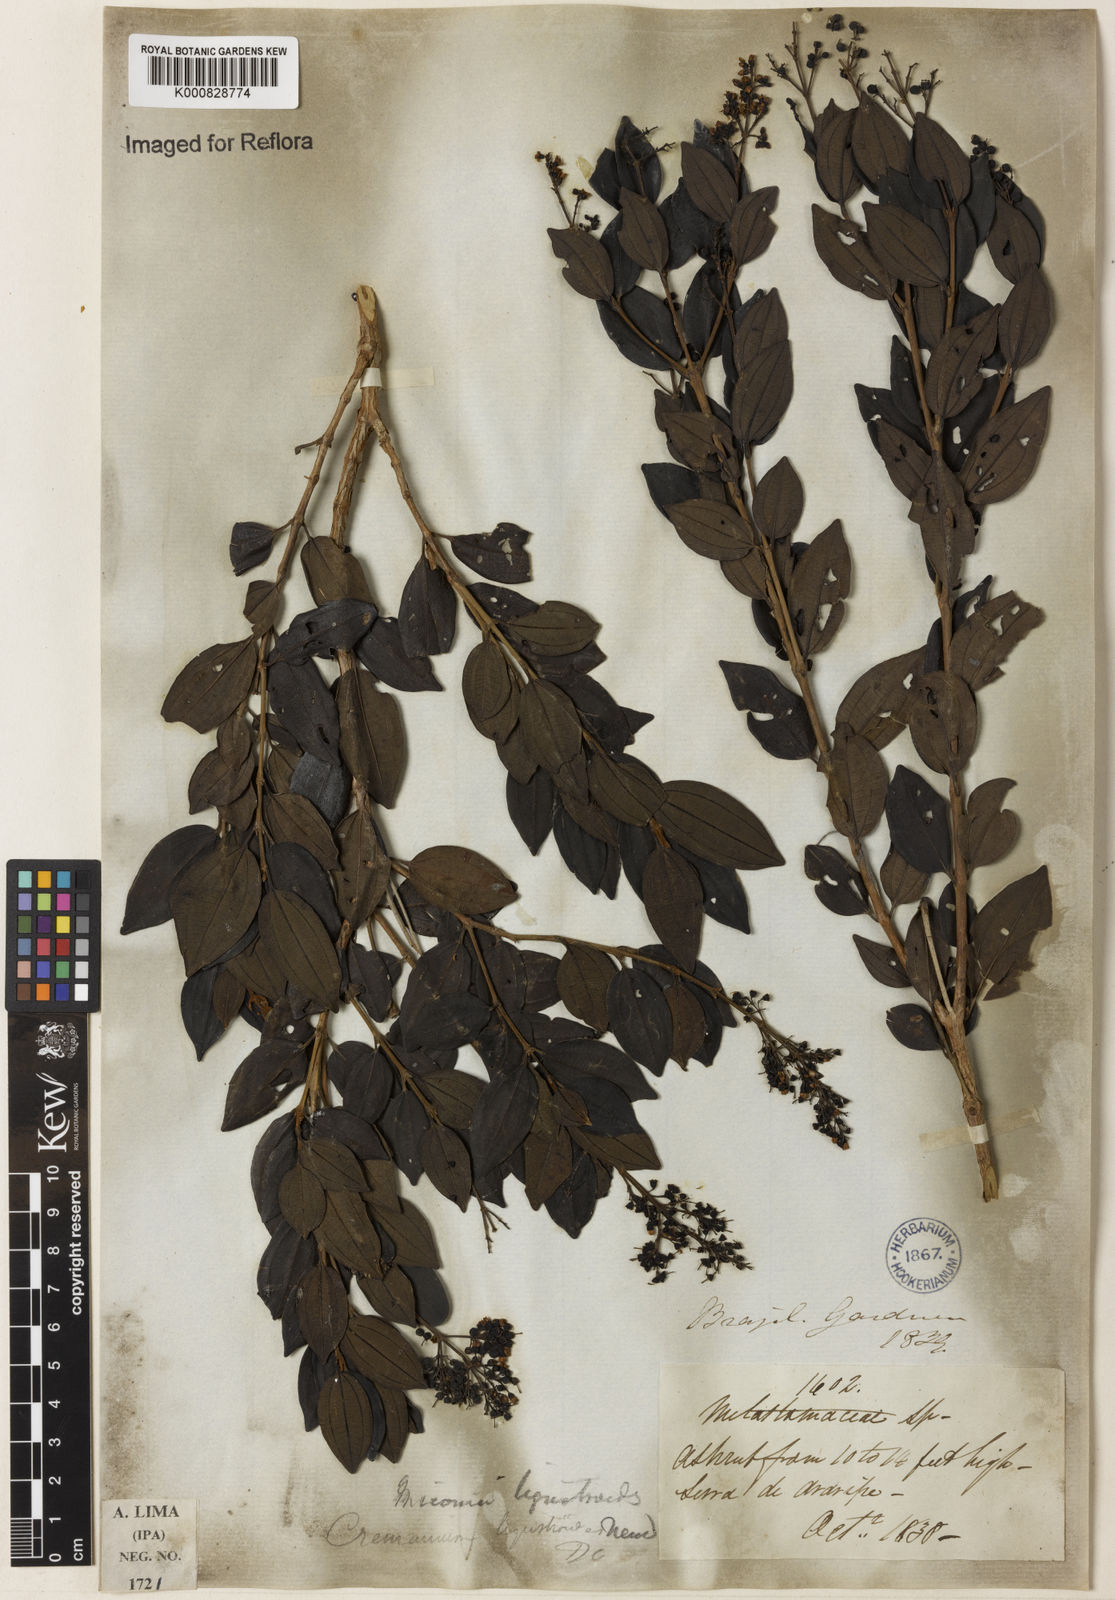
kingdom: Plantae
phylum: Tracheophyta
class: Magnoliopsida
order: Myrtales
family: Melastomataceae
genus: Miconia
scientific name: Miconia ligustroides
